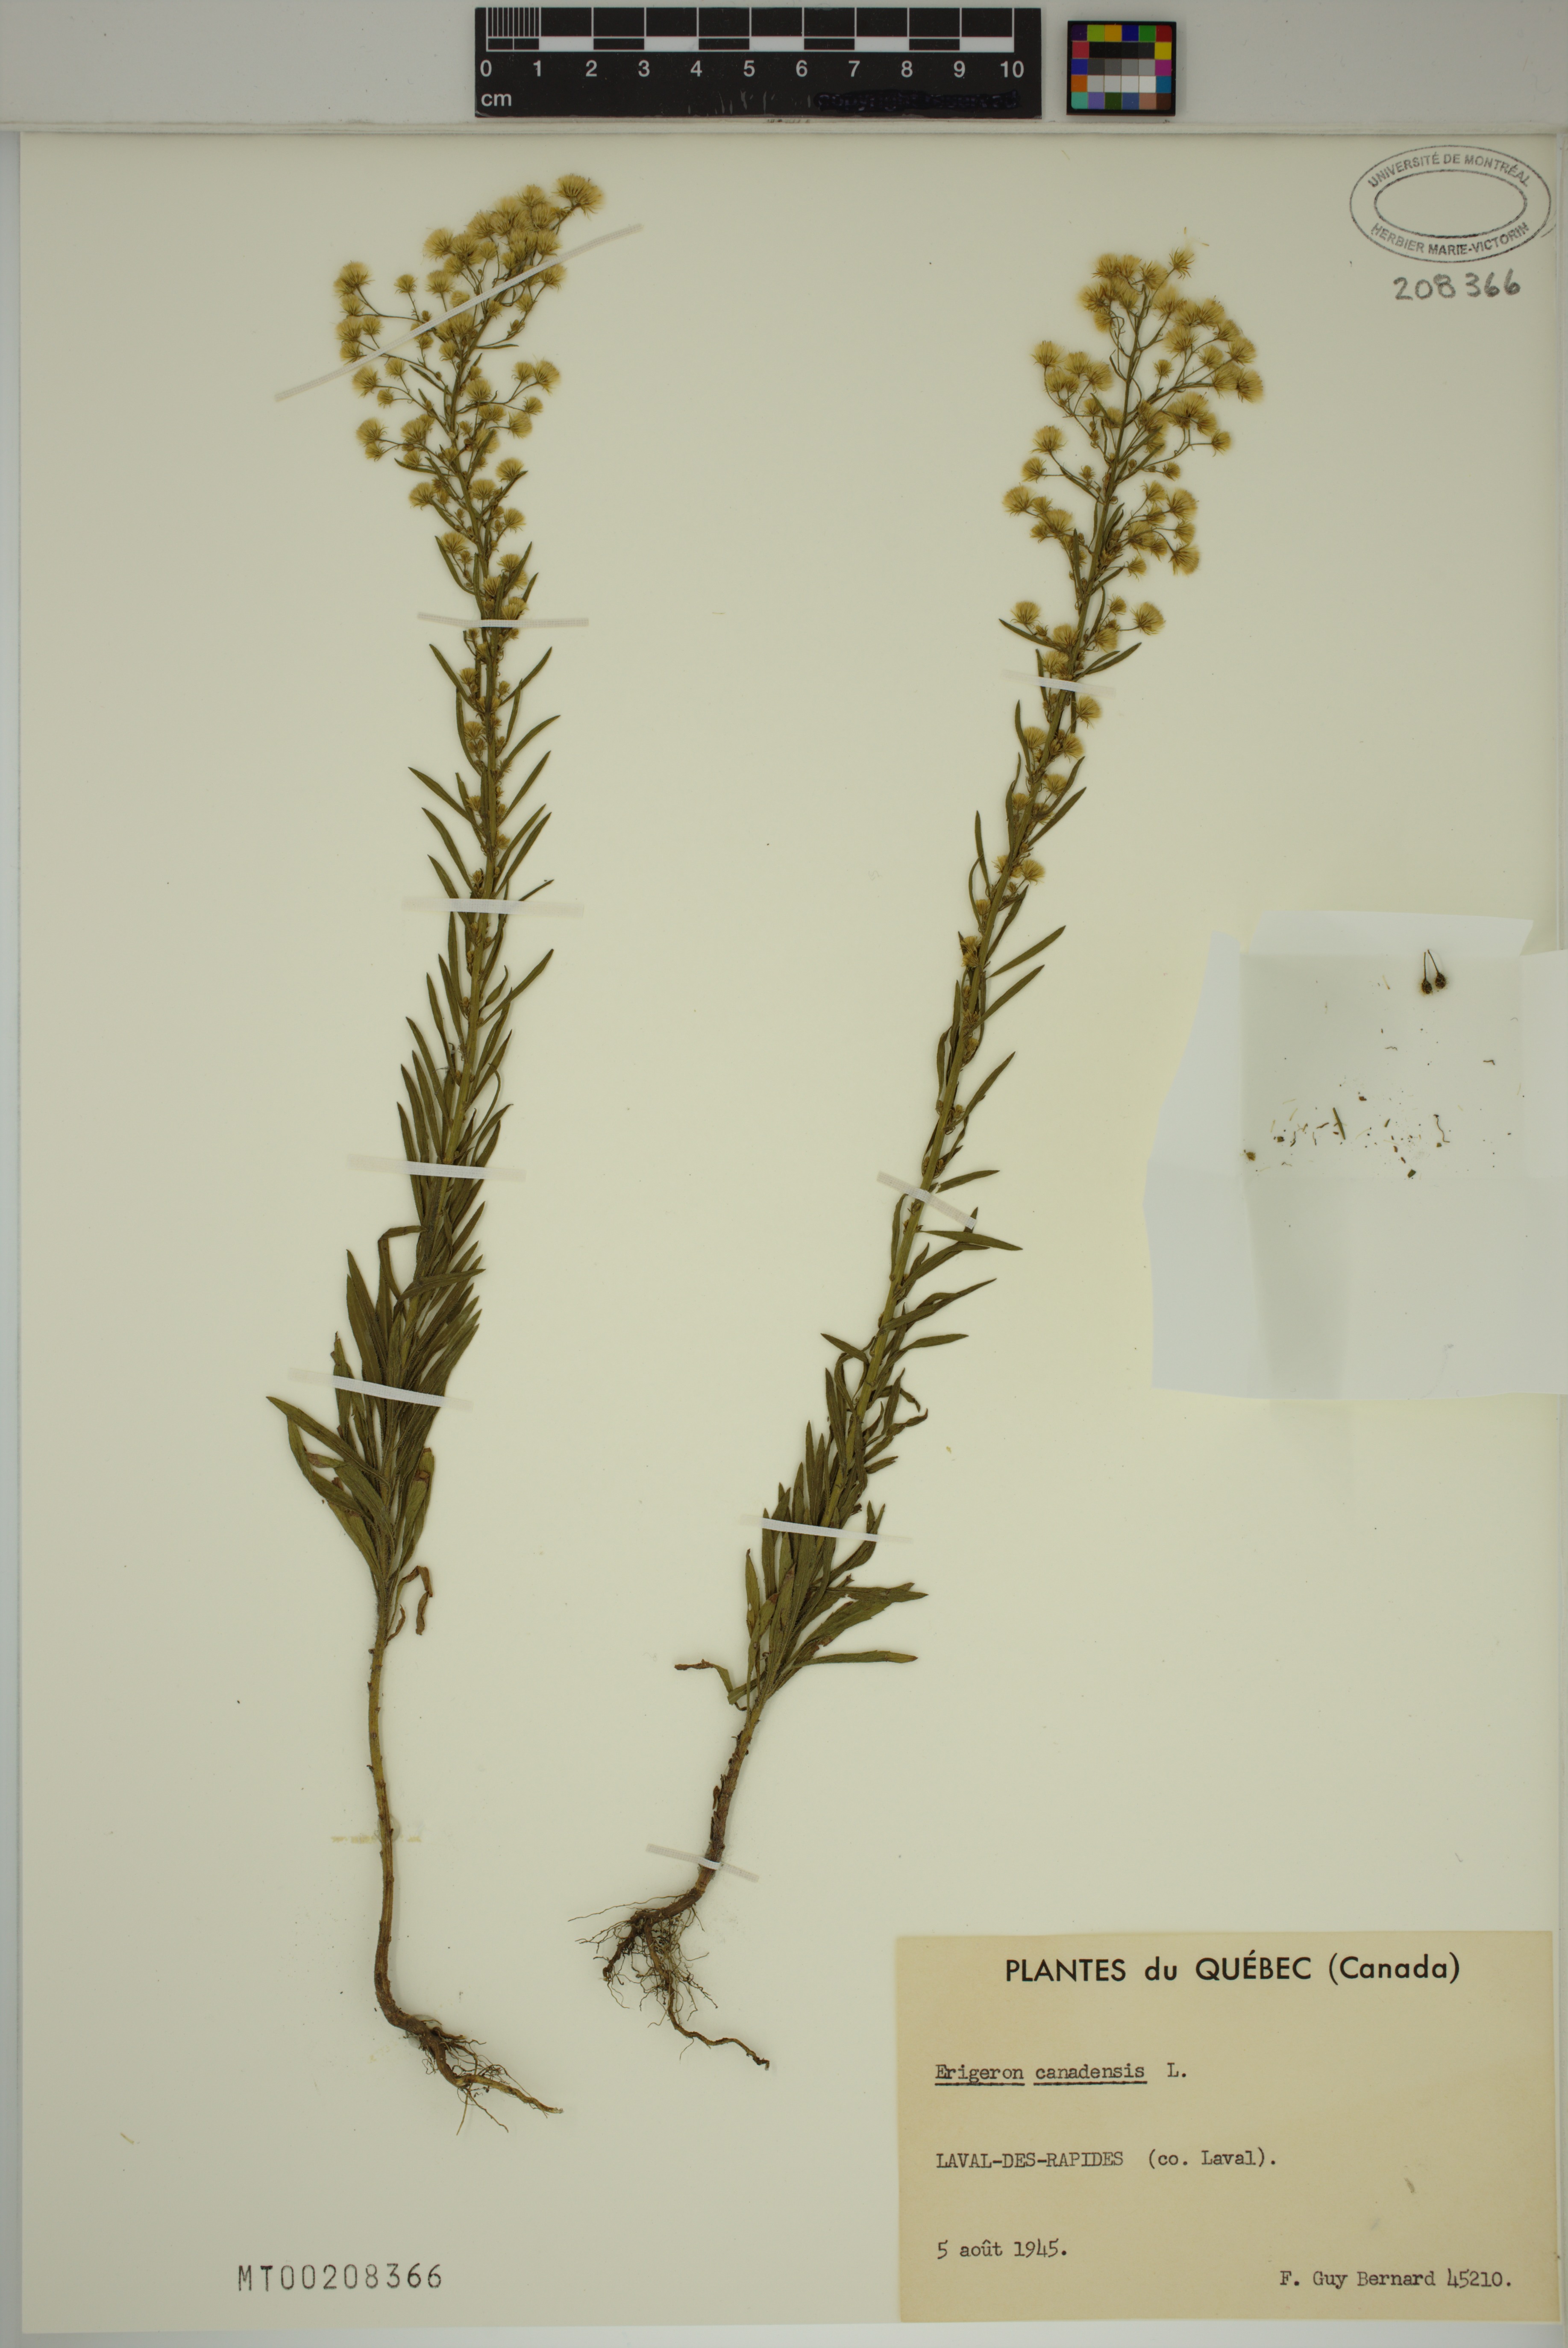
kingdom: Plantae
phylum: Tracheophyta
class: Magnoliopsida
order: Asterales
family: Asteraceae
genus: Erigeron
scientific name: Erigeron canadensis
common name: Canadian fleabane
